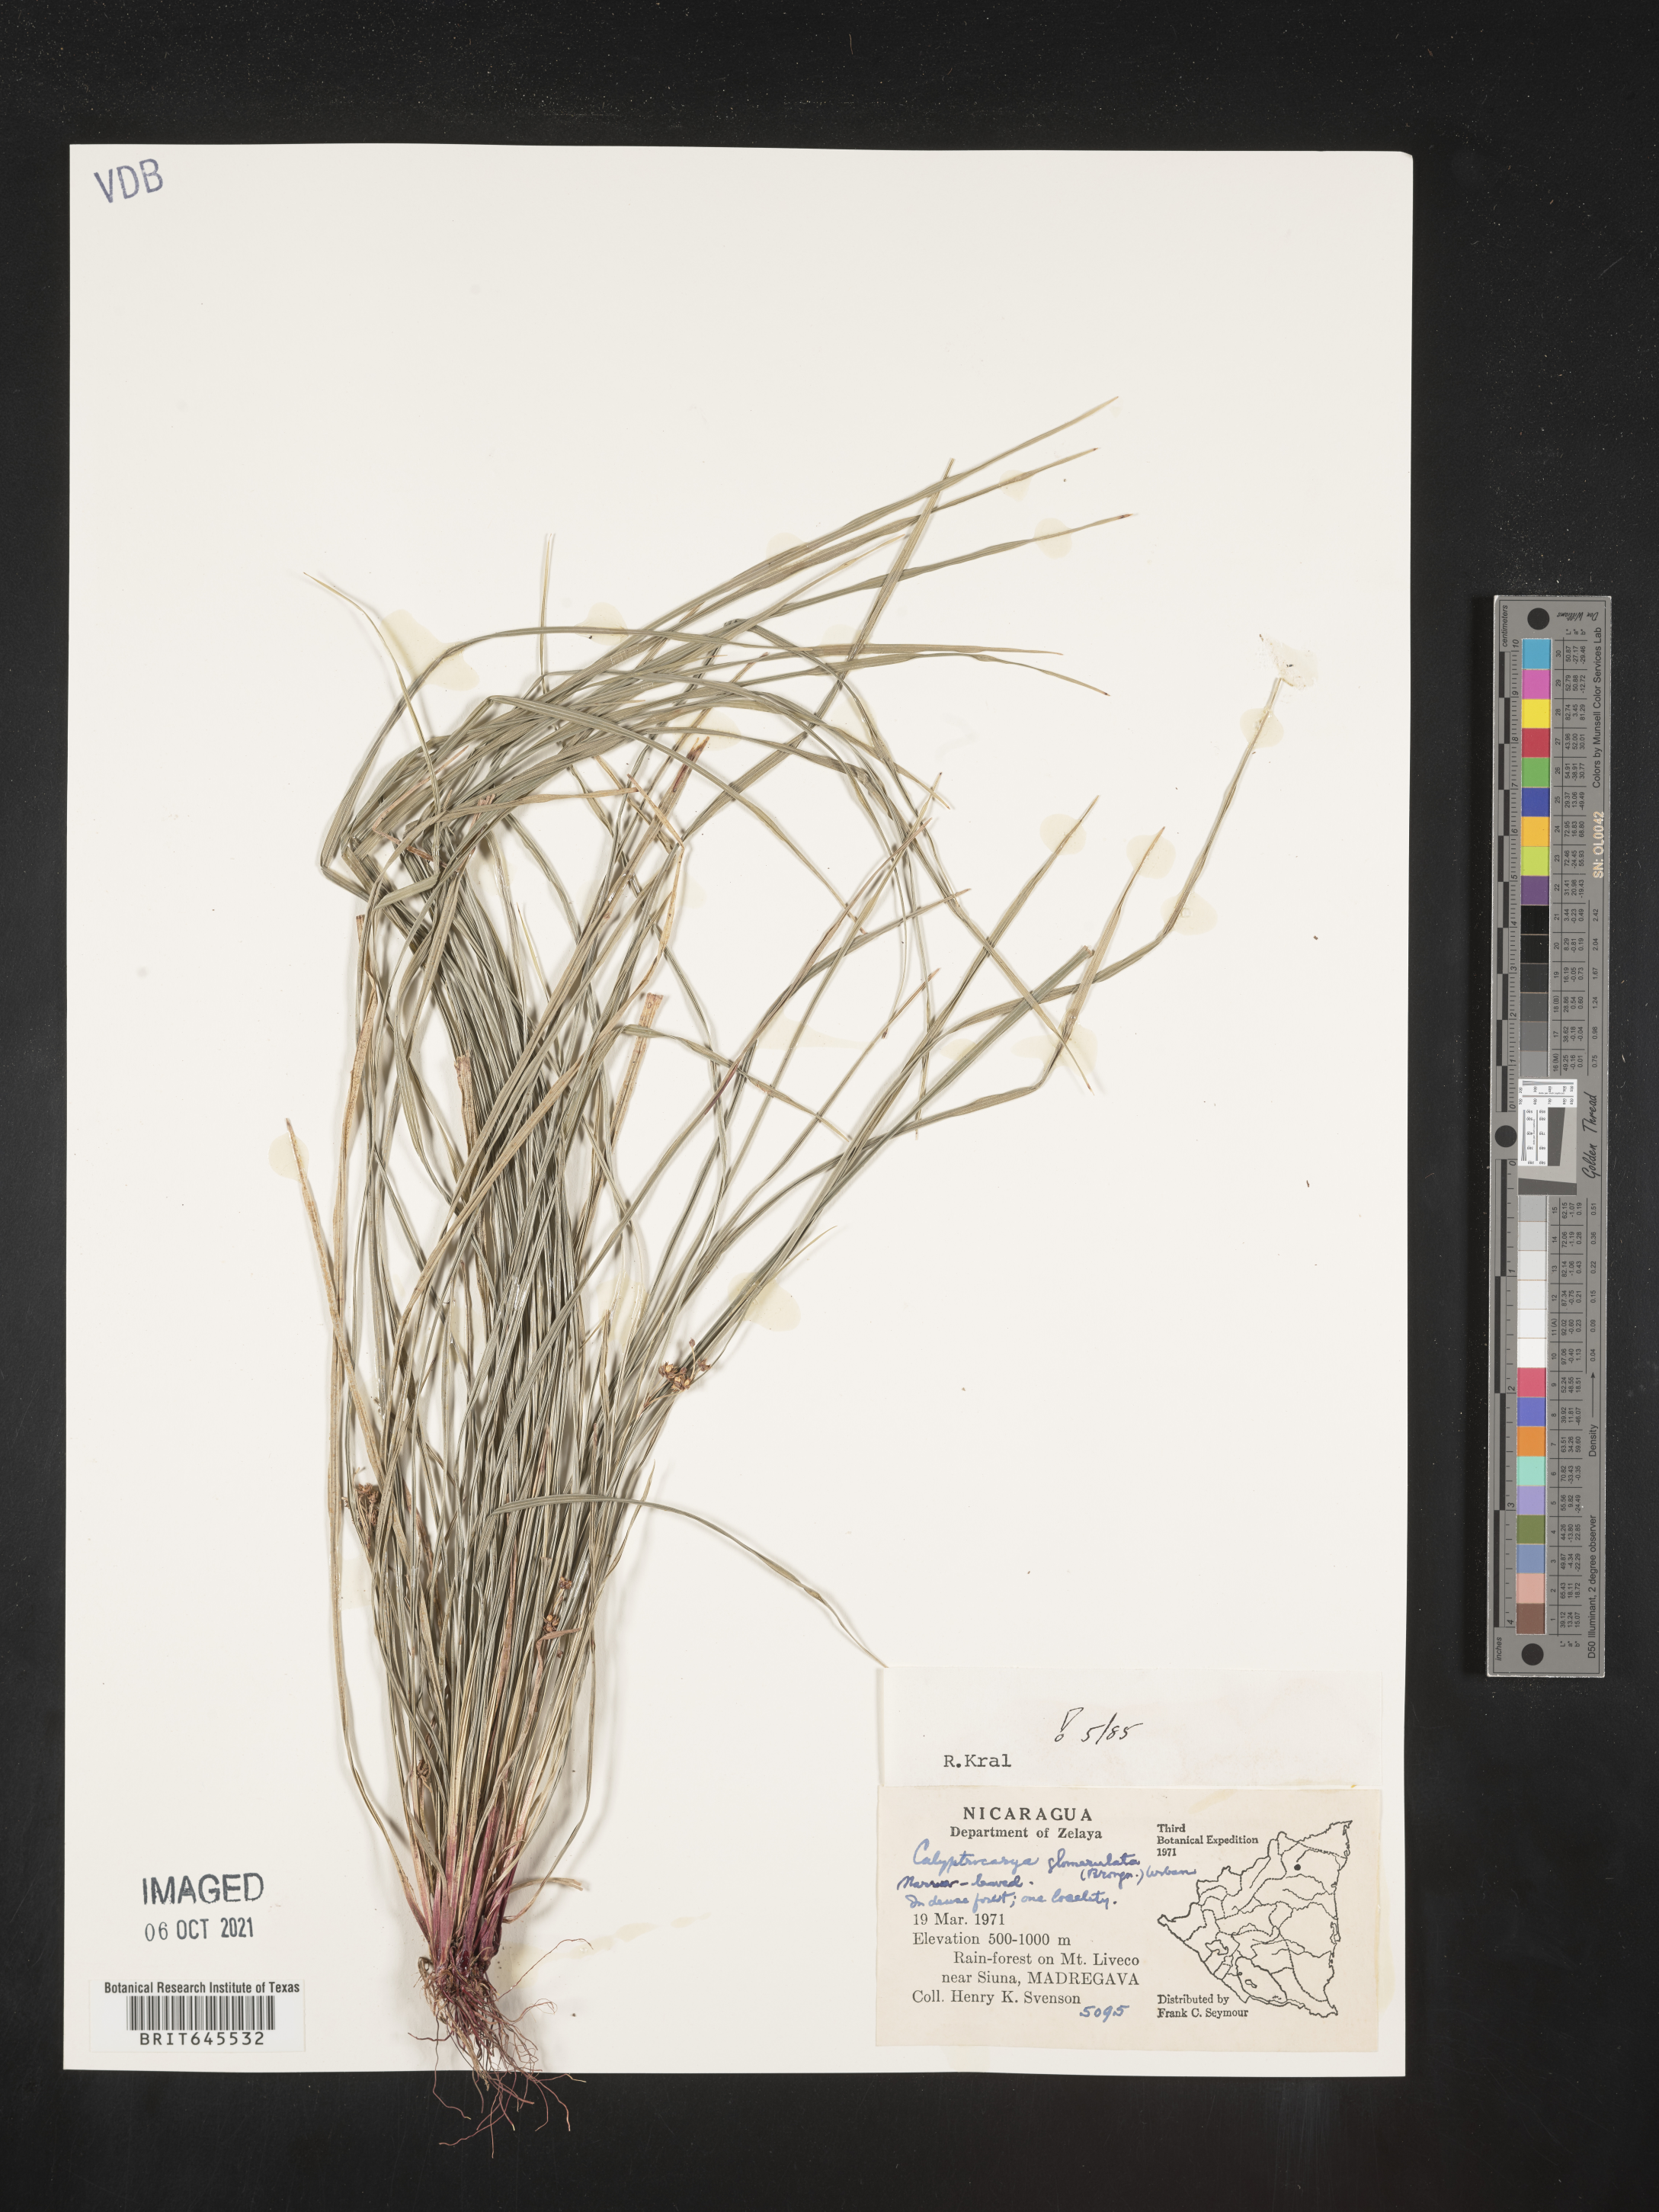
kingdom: Plantae
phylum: Tracheophyta
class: Liliopsida
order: Poales
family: Cyperaceae
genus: Calyptrocarya
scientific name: Calyptrocarya glomerulata
